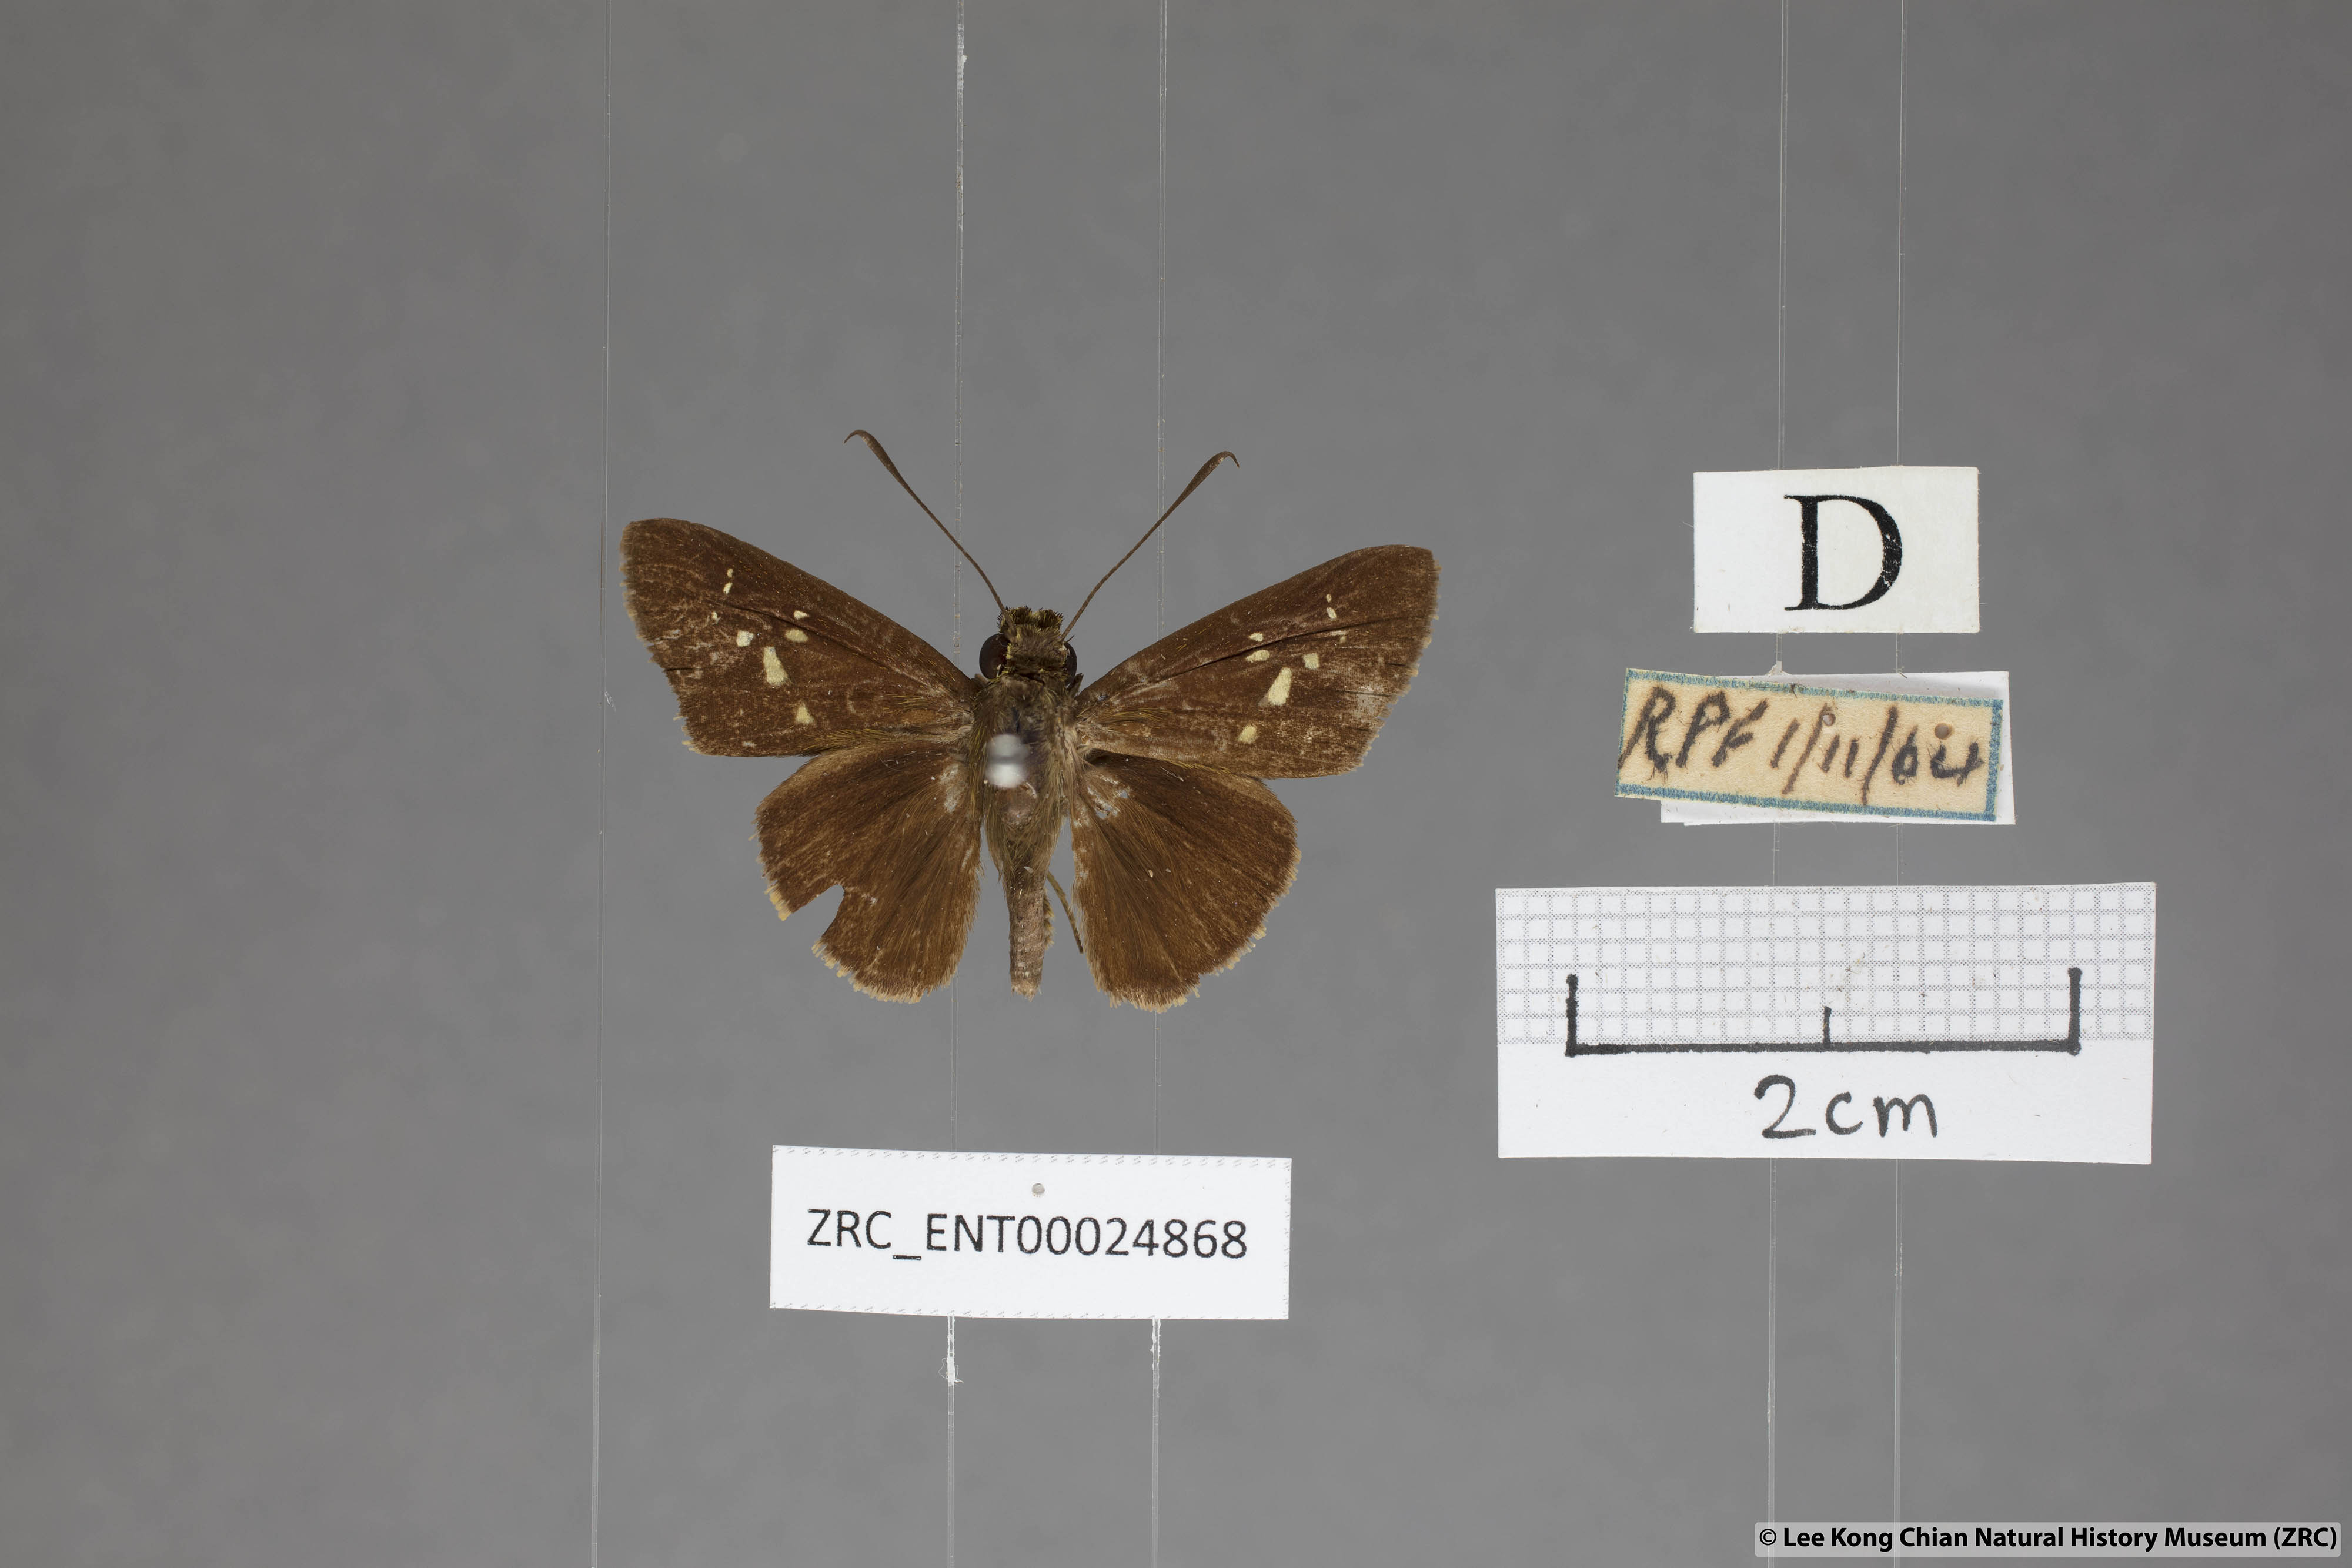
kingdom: Animalia
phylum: Arthropoda
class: Insecta
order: Lepidoptera
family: Hesperiidae
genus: Isma
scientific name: Isma miosticta
